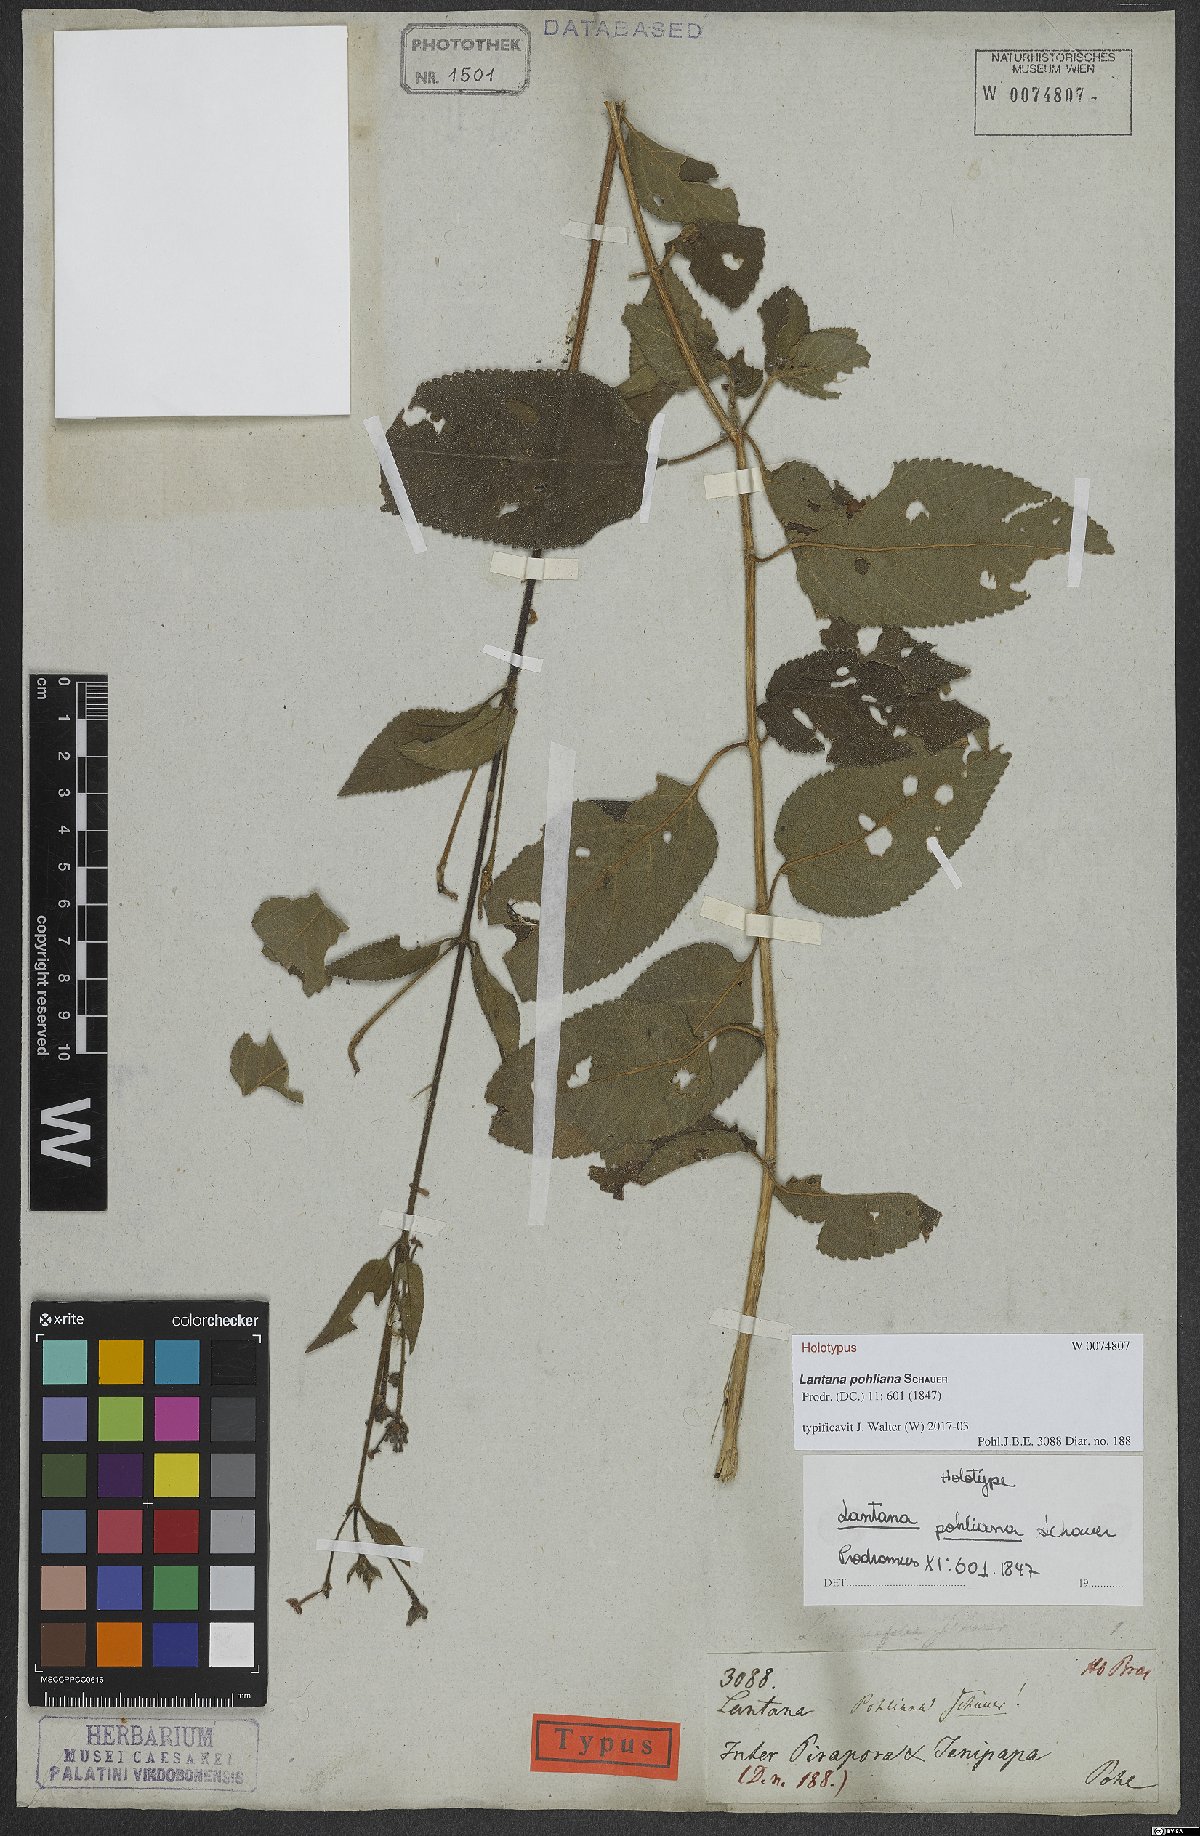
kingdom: Plantae
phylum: Tracheophyta
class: Magnoliopsida
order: Lamiales
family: Verbenaceae
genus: Lantana
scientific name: Lantana pohliana
